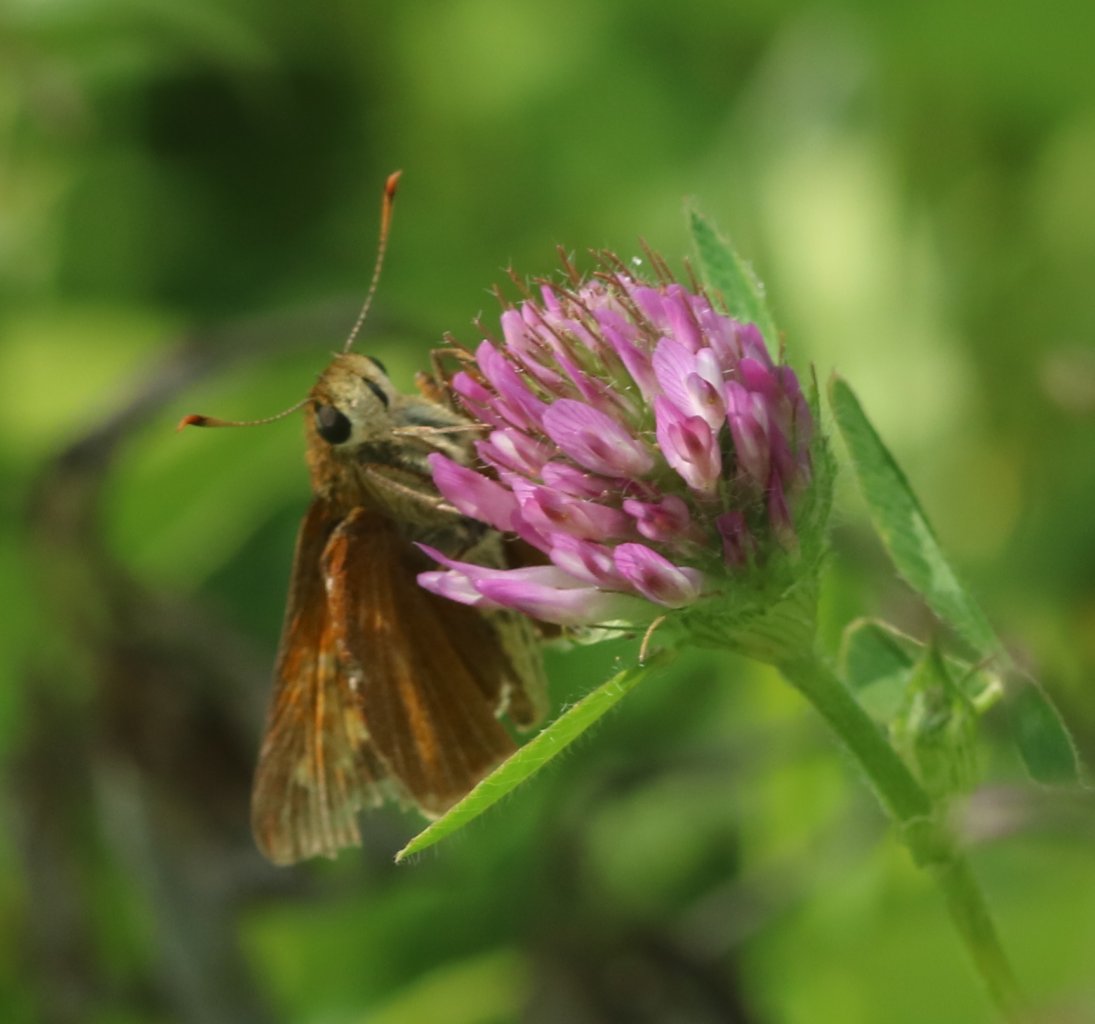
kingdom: Animalia
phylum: Arthropoda
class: Insecta
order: Lepidoptera
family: Hesperiidae
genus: Polites
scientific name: Polites
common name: Long Dash Skipper
